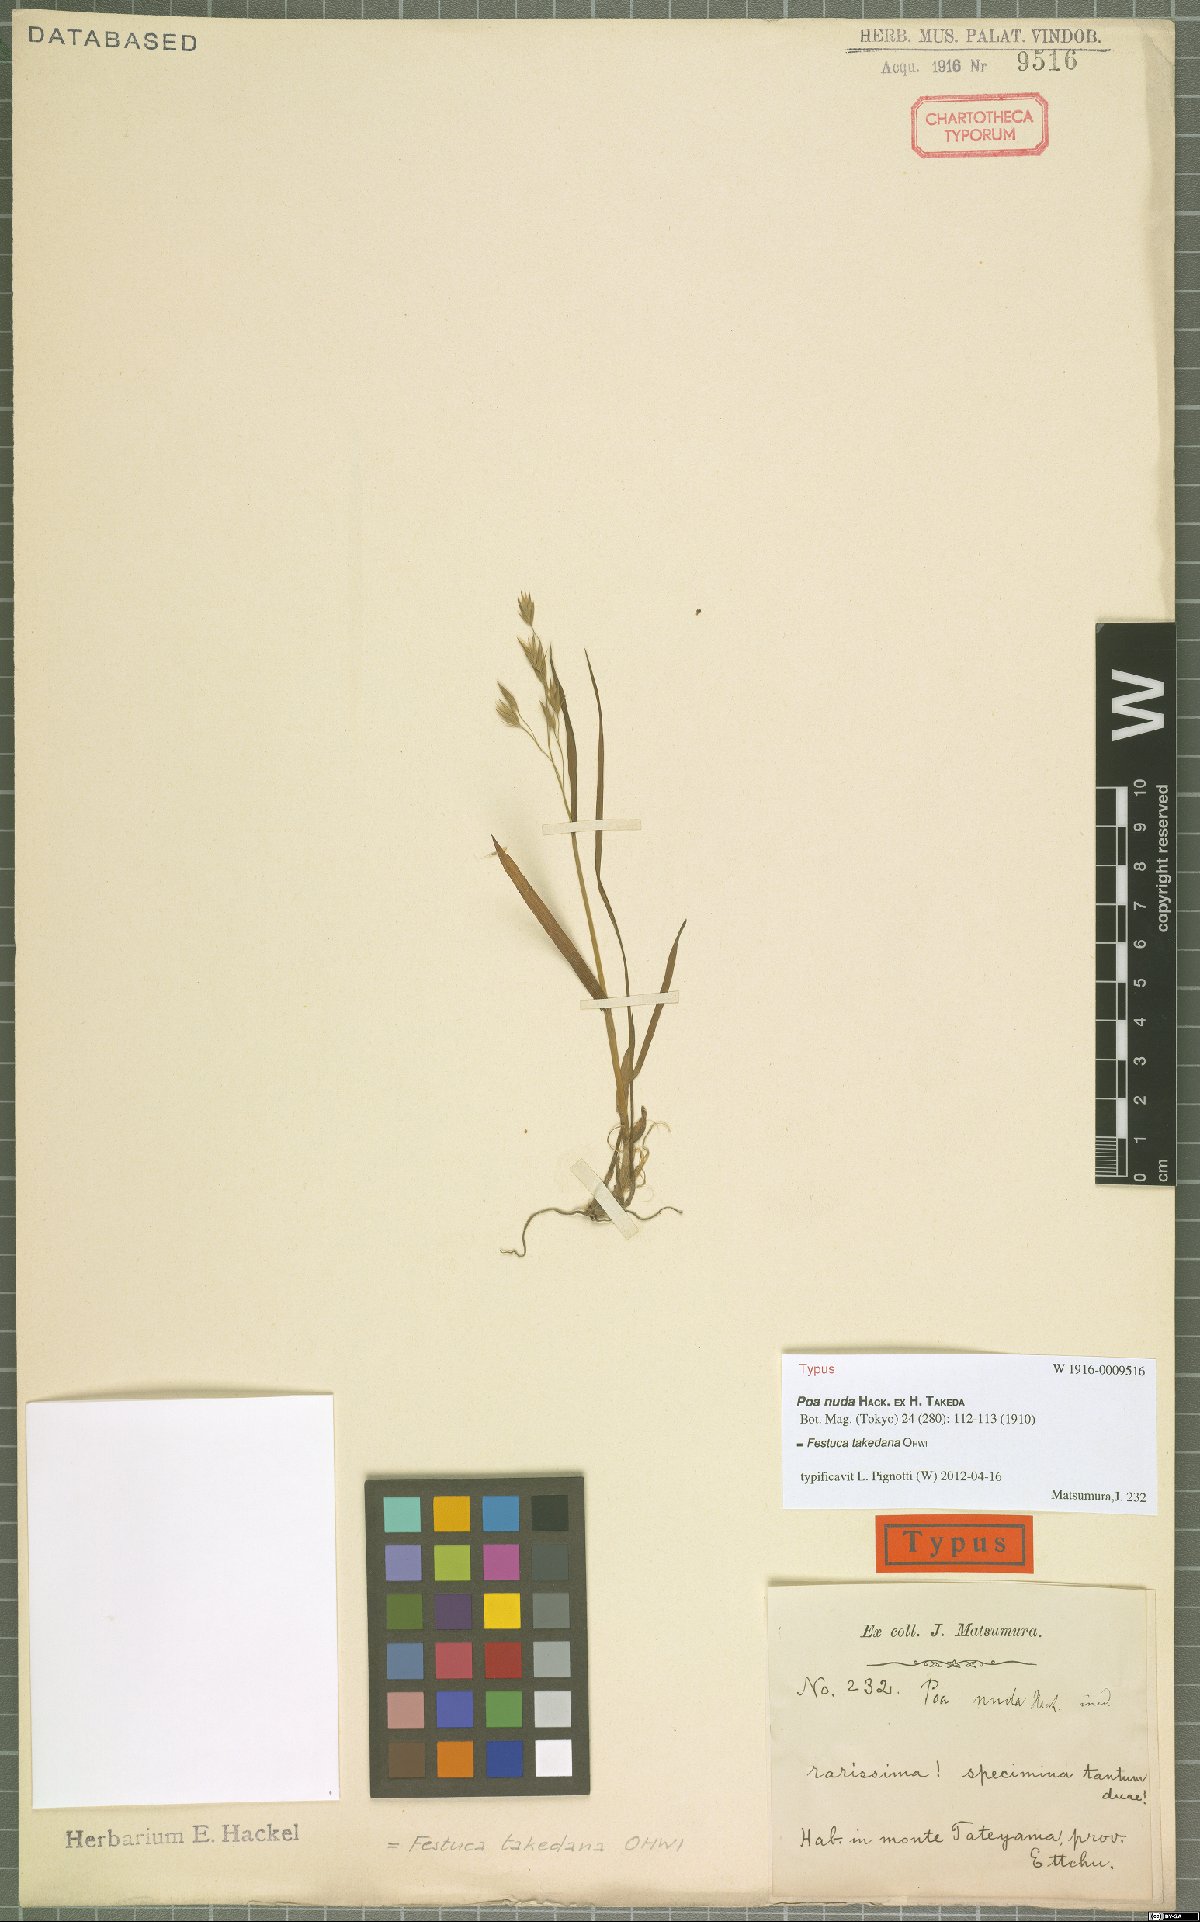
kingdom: Plantae
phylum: Tracheophyta
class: Liliopsida
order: Poales
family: Poaceae
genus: Festuca
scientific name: Festuca nuda
